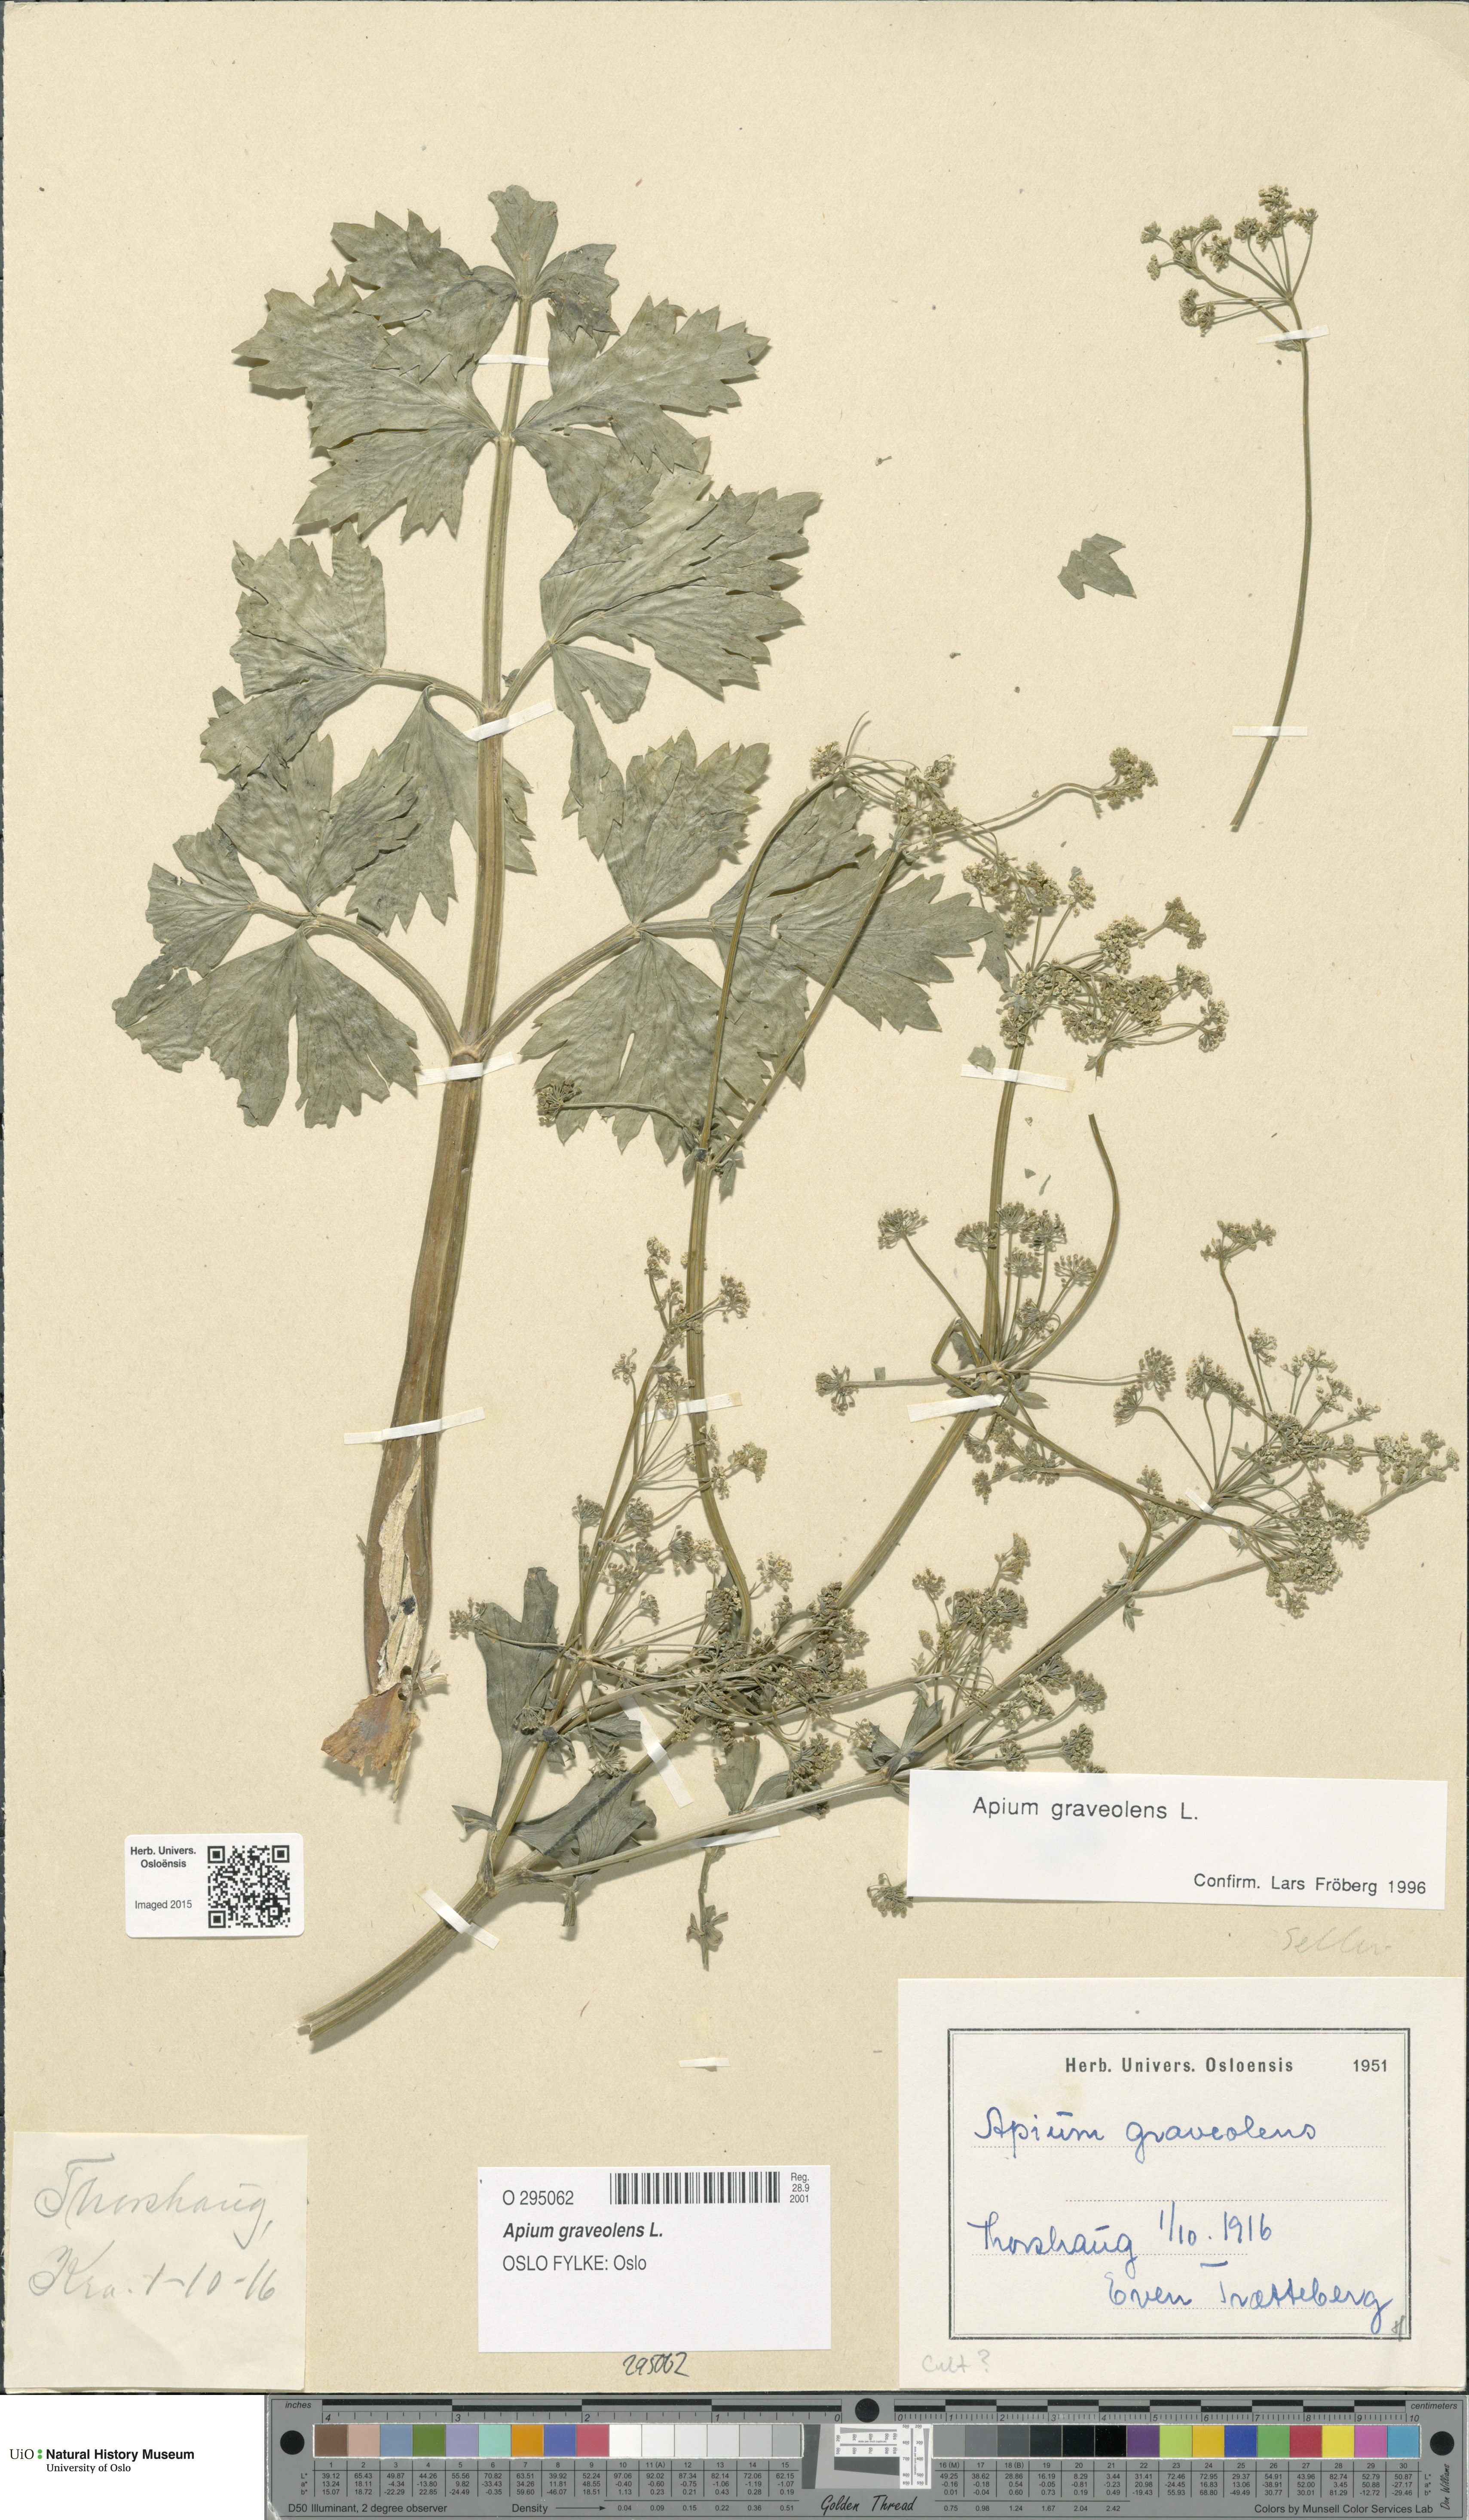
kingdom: Plantae
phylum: Tracheophyta
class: Magnoliopsida
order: Apiales
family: Apiaceae
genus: Apium
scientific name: Apium graveolens
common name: Wild celery
